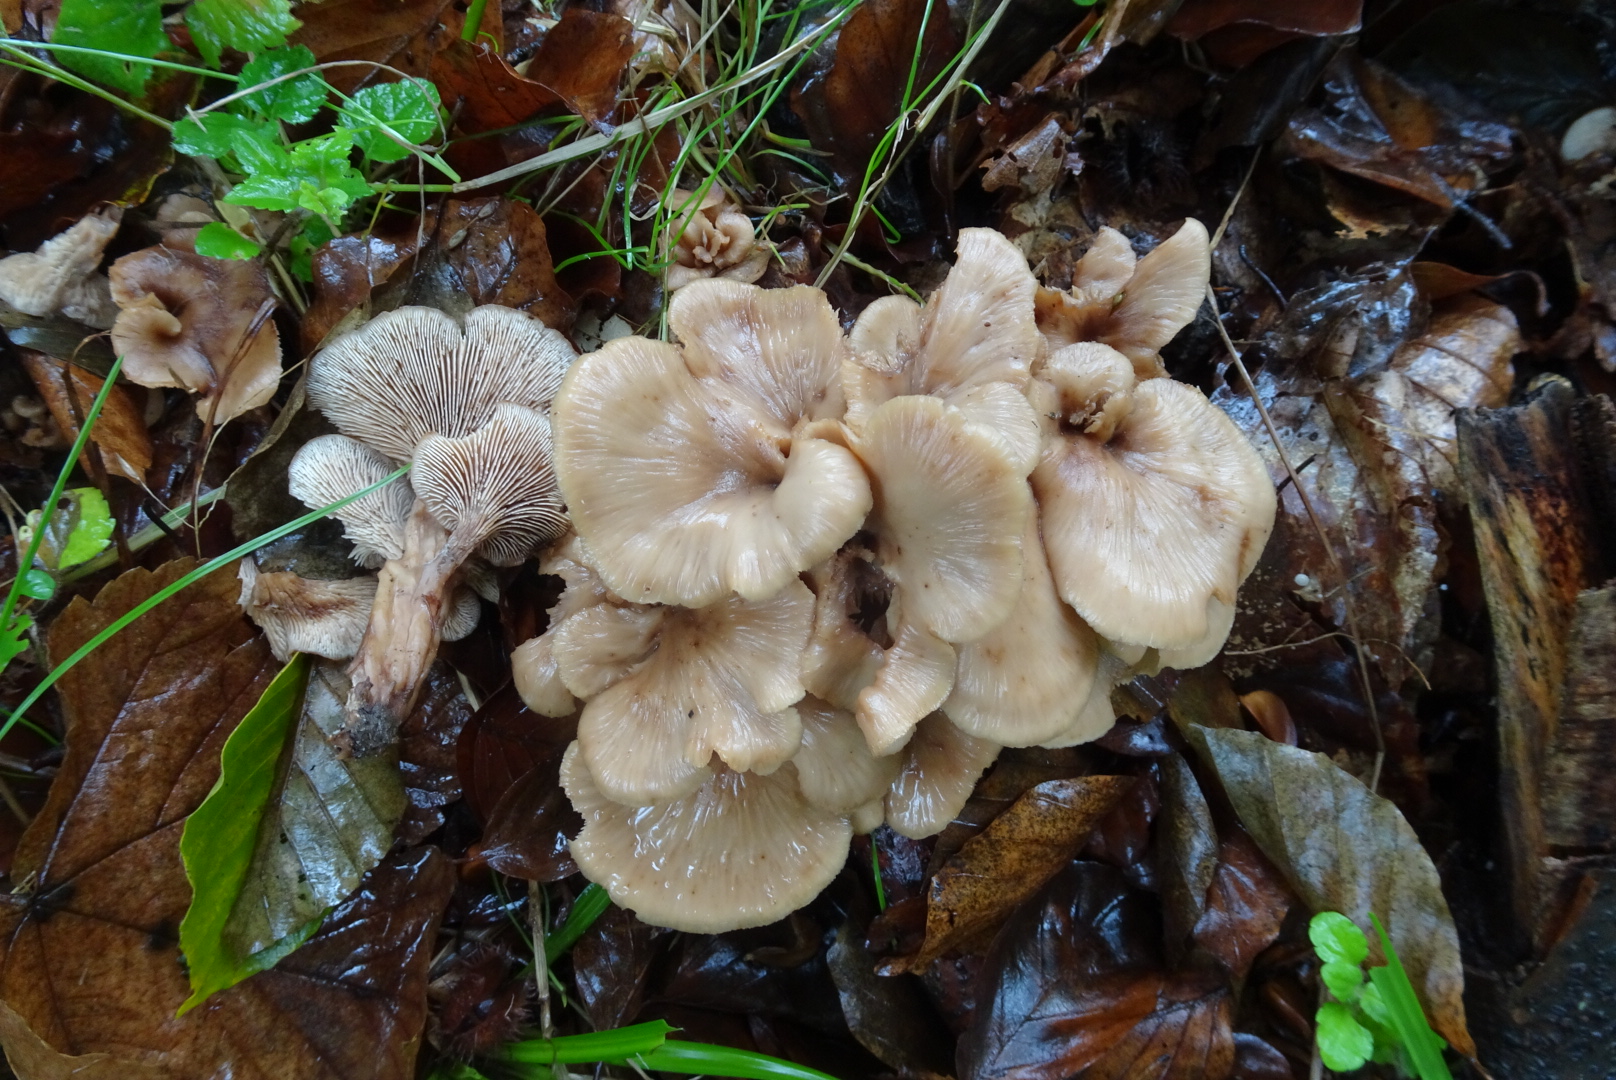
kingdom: Fungi
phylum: Basidiomycota
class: Agaricomycetes
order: Russulales
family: Auriscalpiaceae
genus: Lentinellus
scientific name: Lentinellus cochleatus
